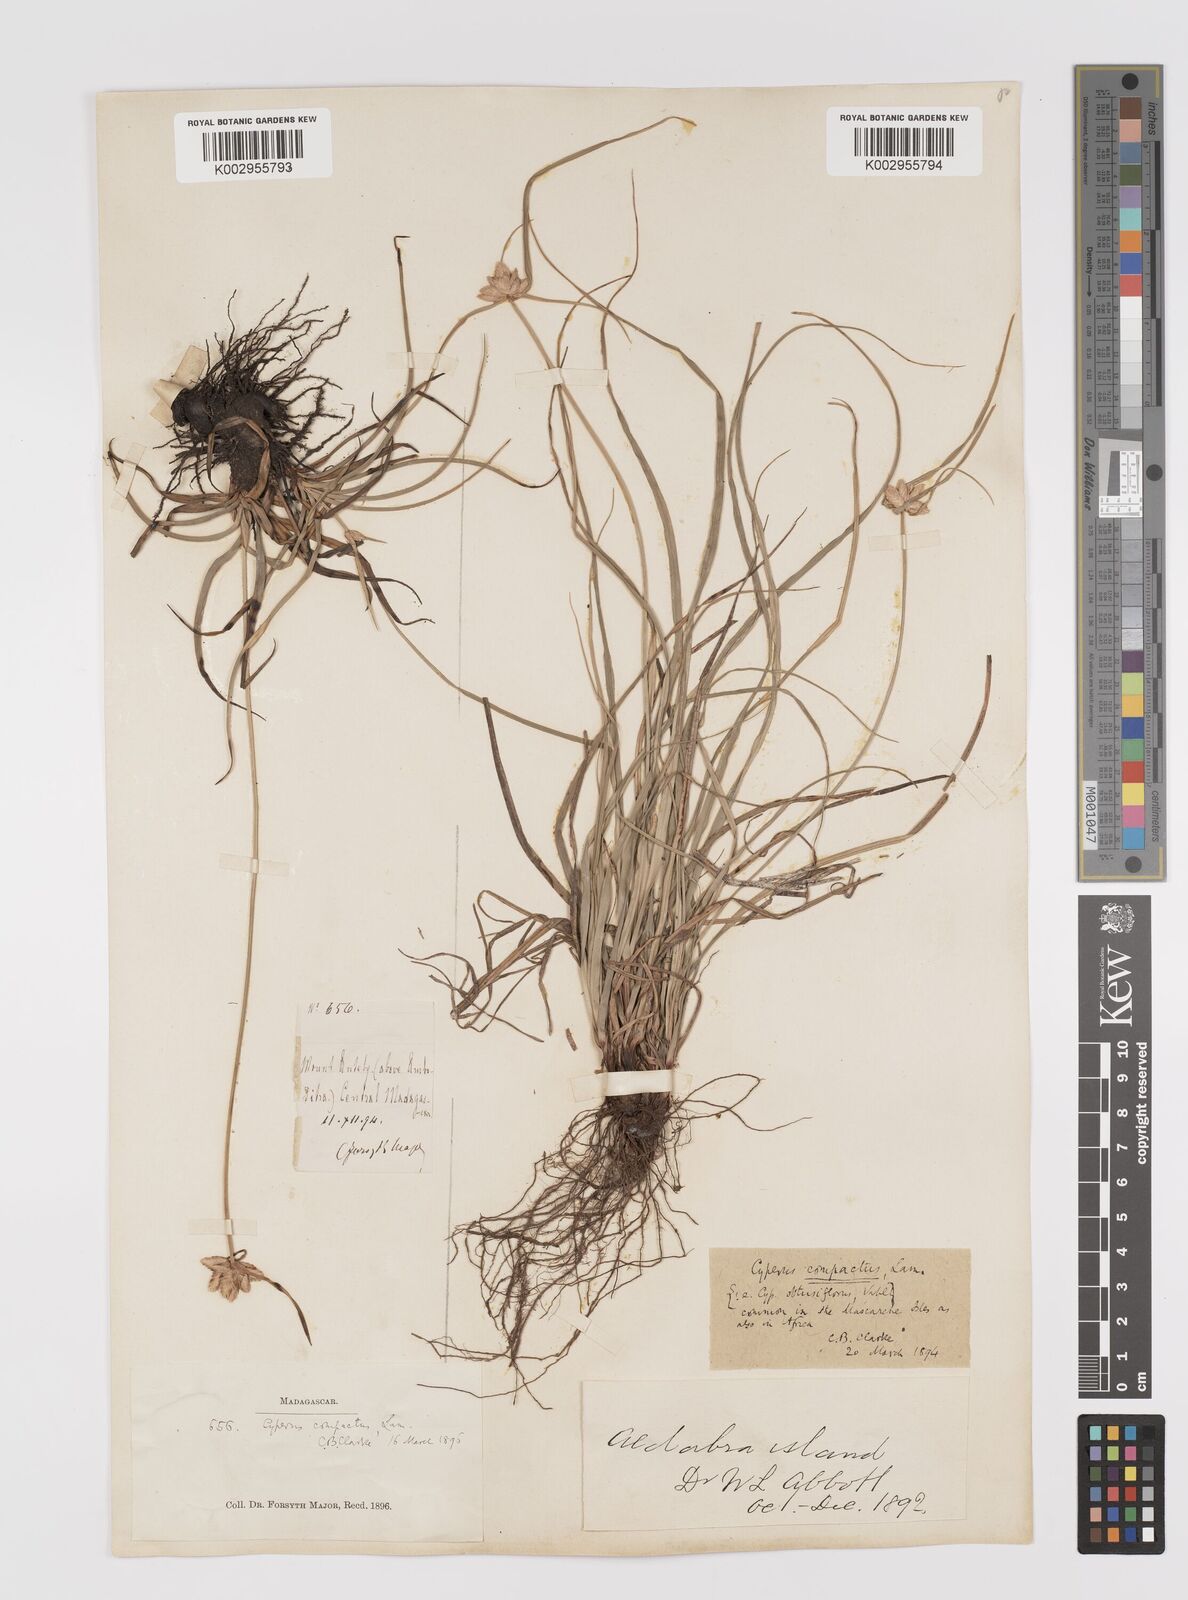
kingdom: Plantae
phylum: Tracheophyta
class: Liliopsida
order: Poales
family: Cyperaceae
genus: Cyperus
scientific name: Cyperus niveus
